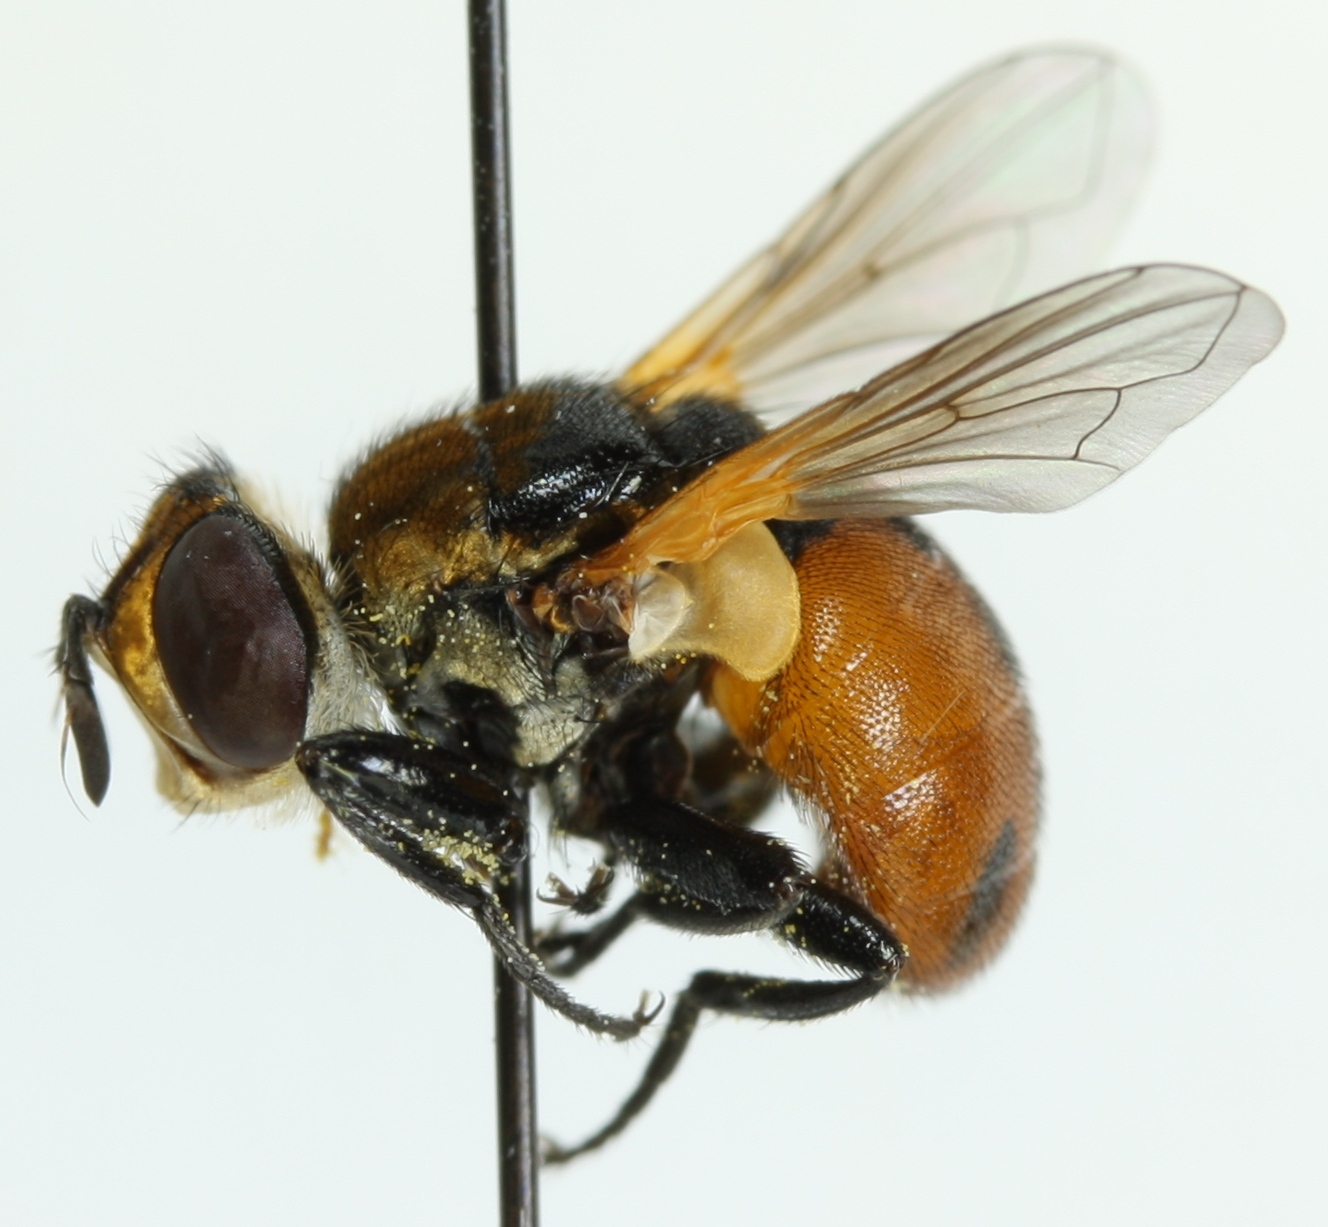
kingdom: Animalia
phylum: Arthropoda
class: Insecta
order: Diptera
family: Tachinidae
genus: Gymnosoma
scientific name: Gymnosoma nudifrons
